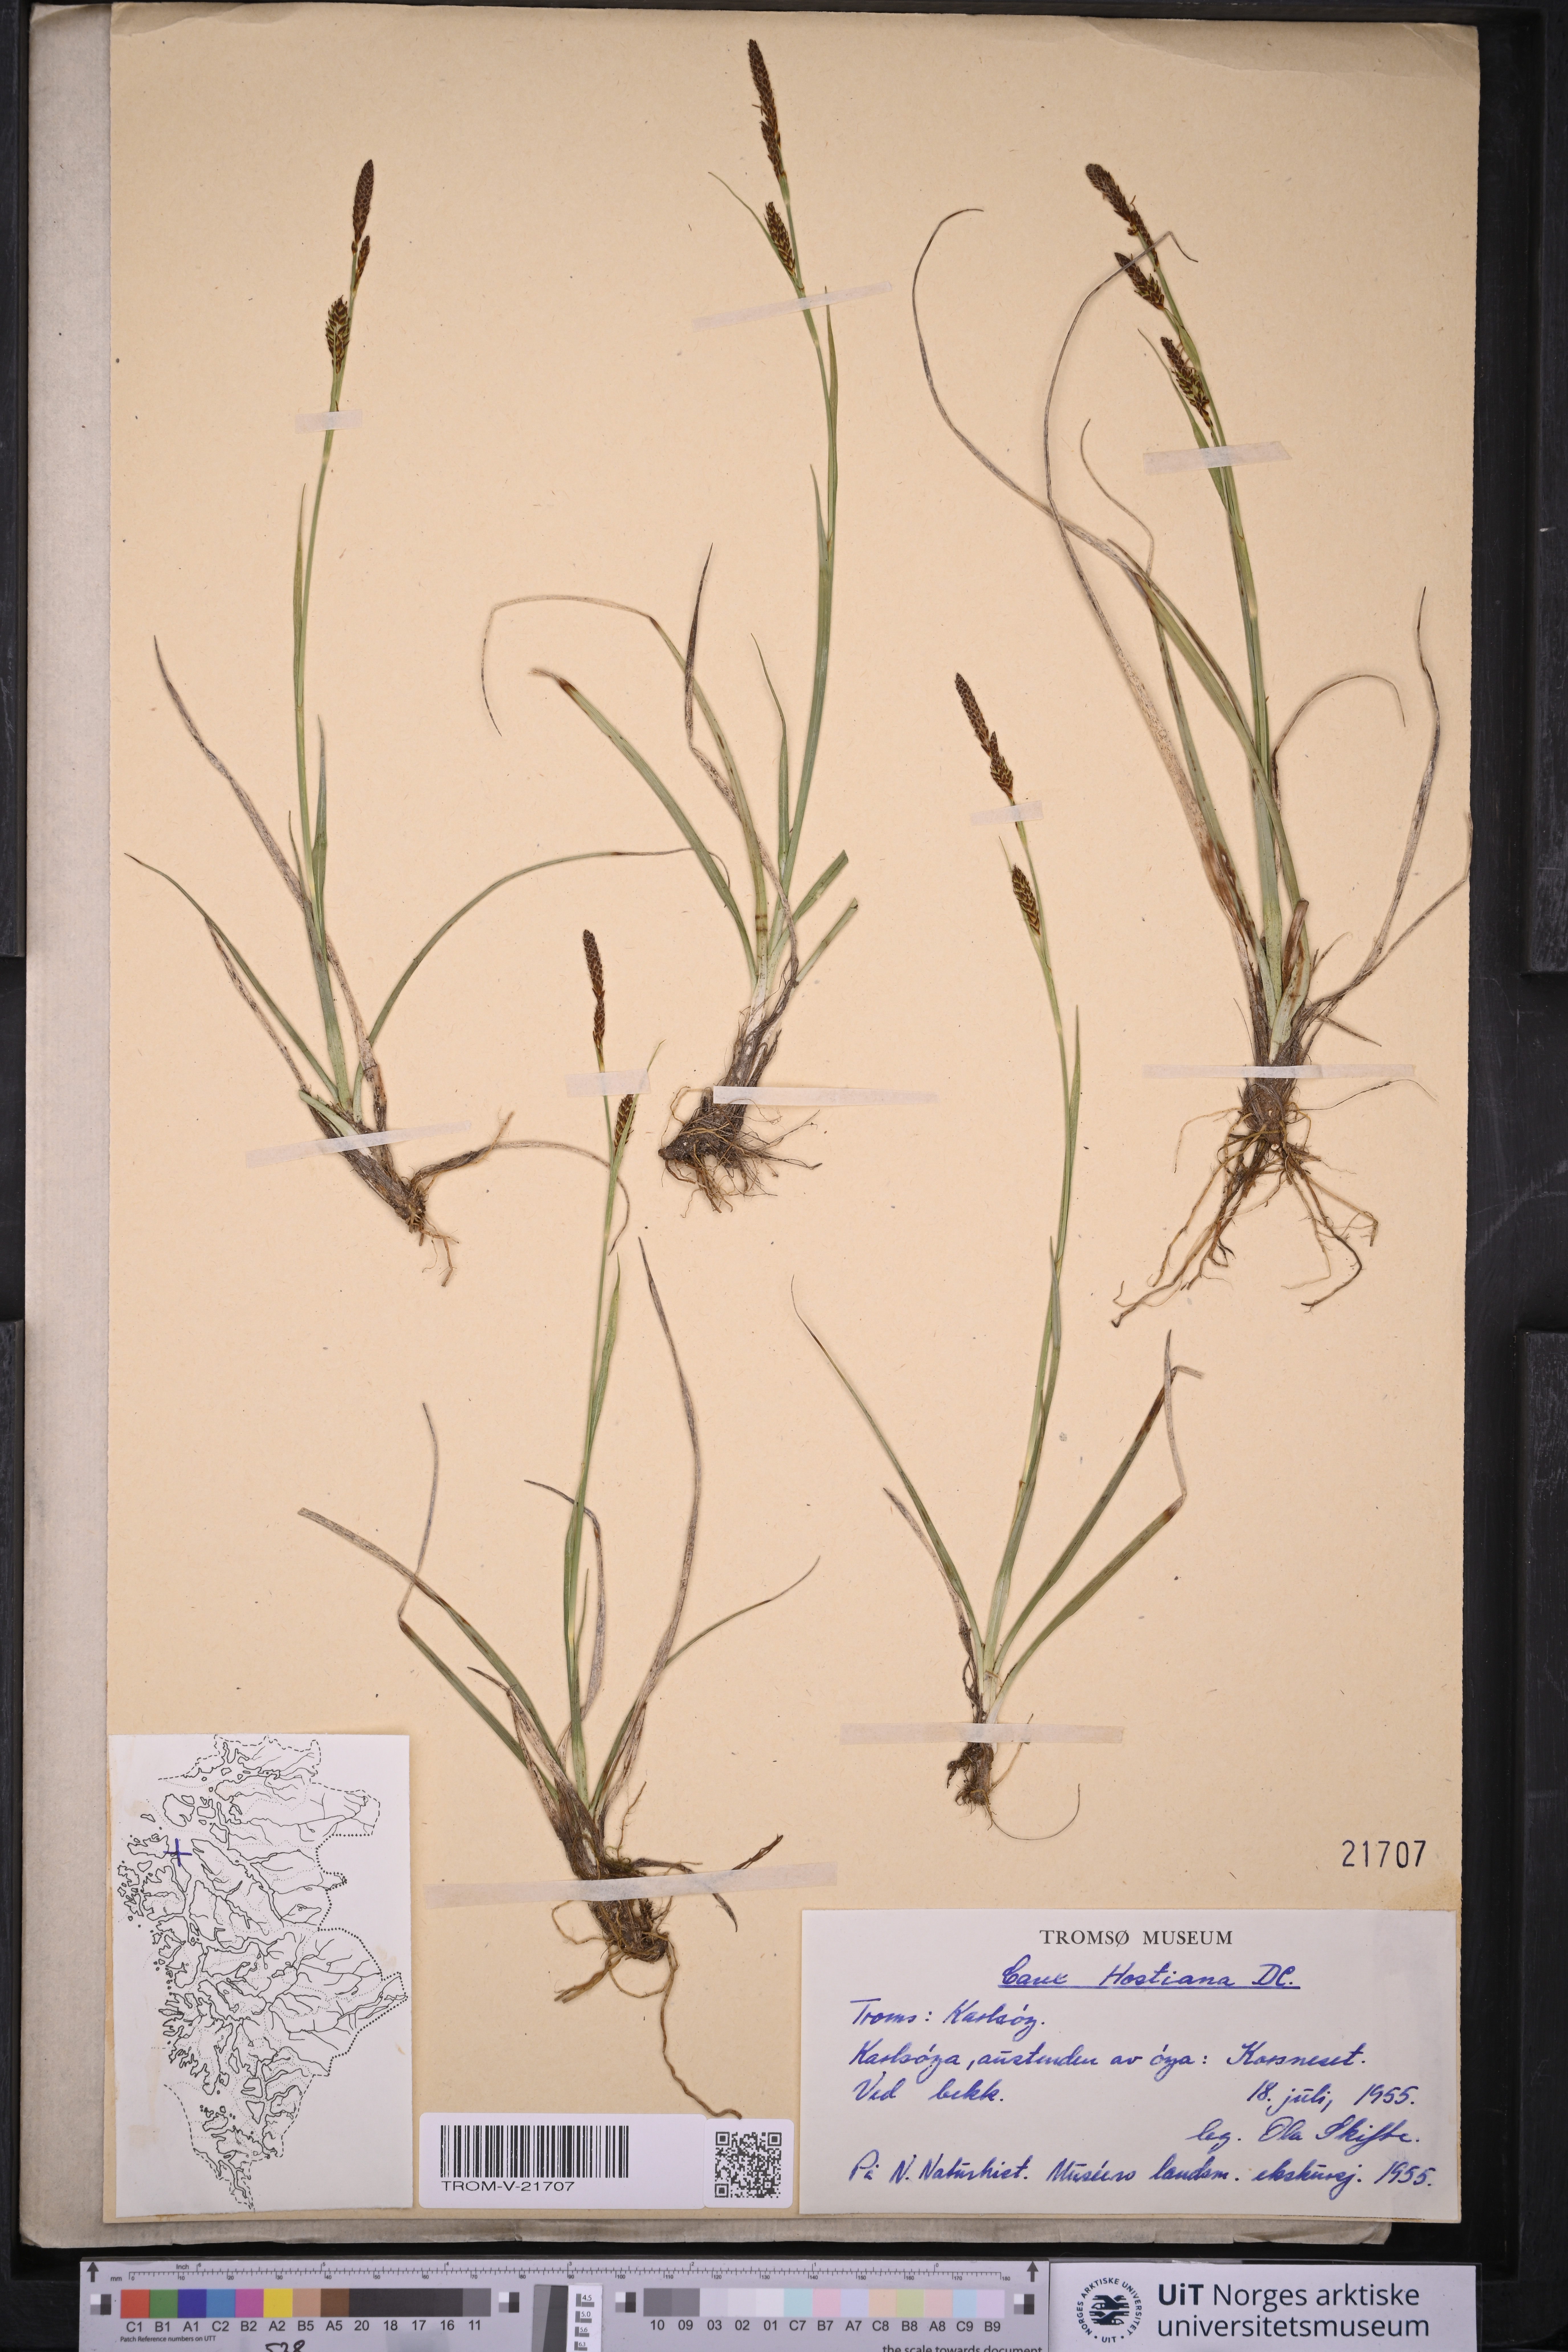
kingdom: Plantae
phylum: Tracheophyta
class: Liliopsida
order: Poales
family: Cyperaceae
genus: Carex
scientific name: Carex hostiana
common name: Tawny sedge
